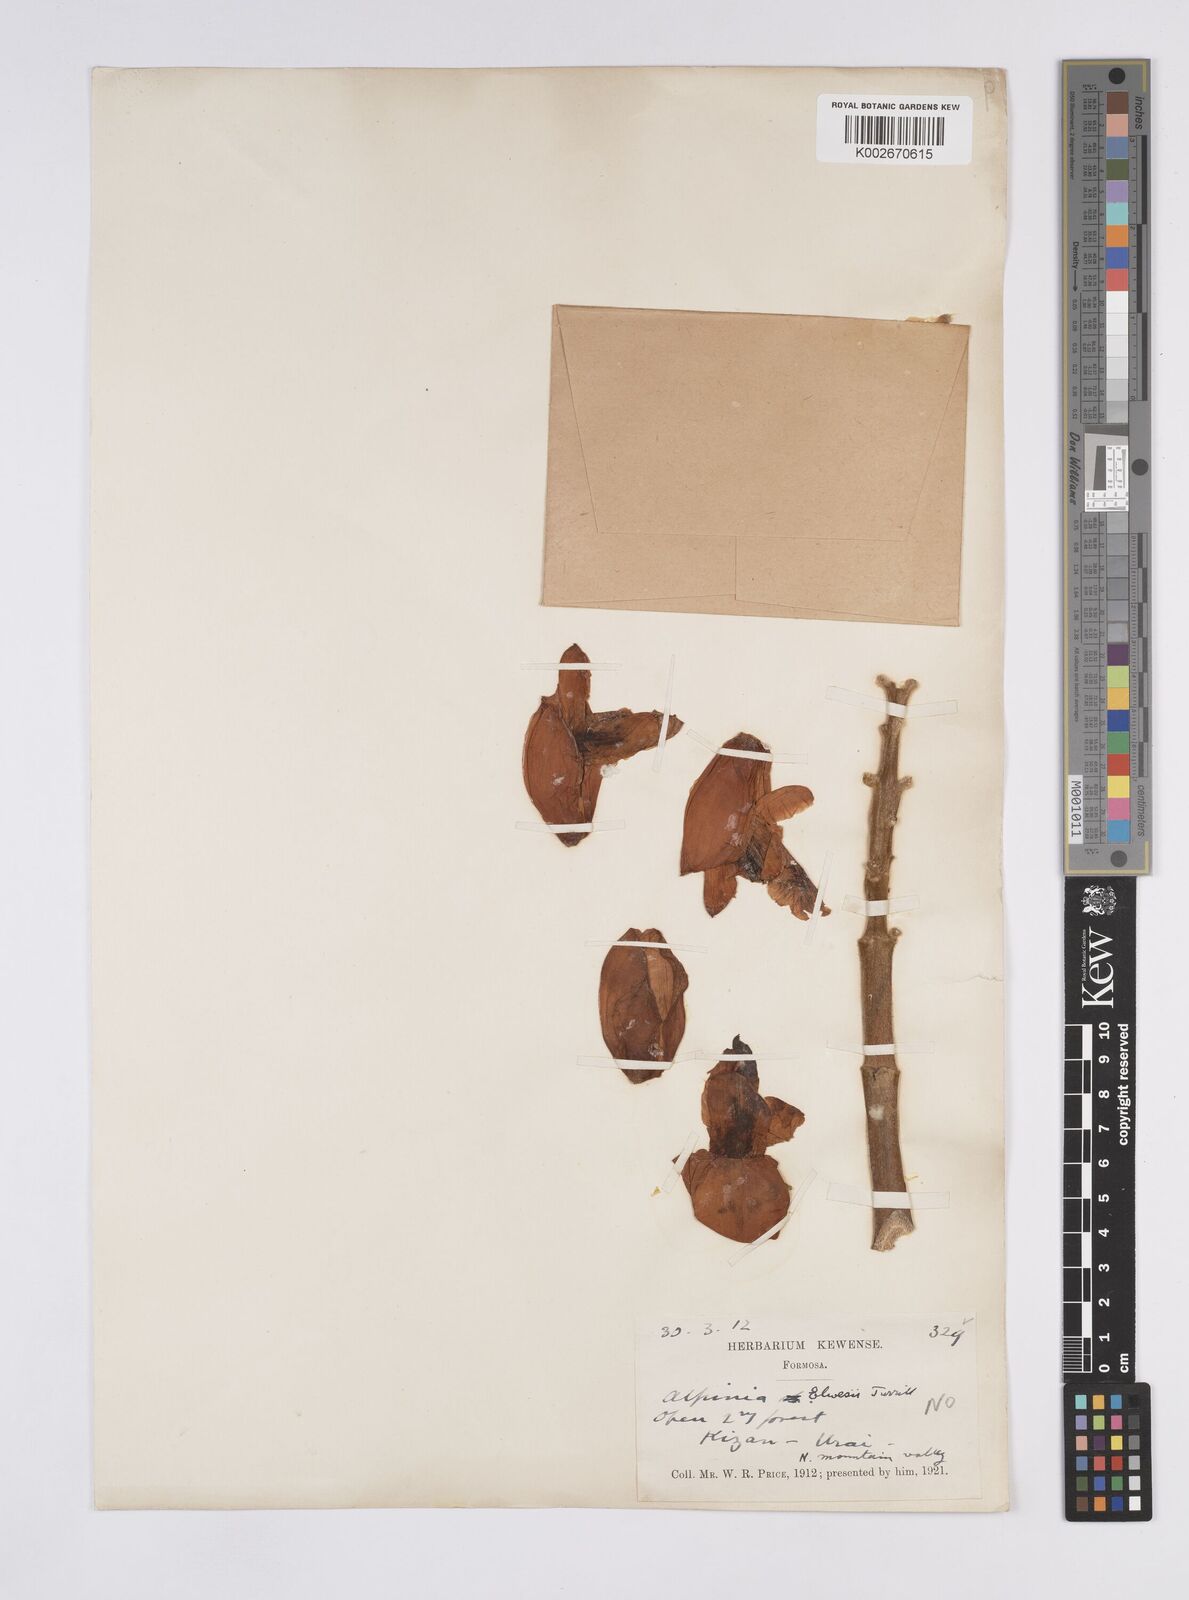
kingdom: Plantae
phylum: Tracheophyta
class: Liliopsida
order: Zingiberales
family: Zingiberaceae
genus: Alpinia
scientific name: Alpinia kawakamii
